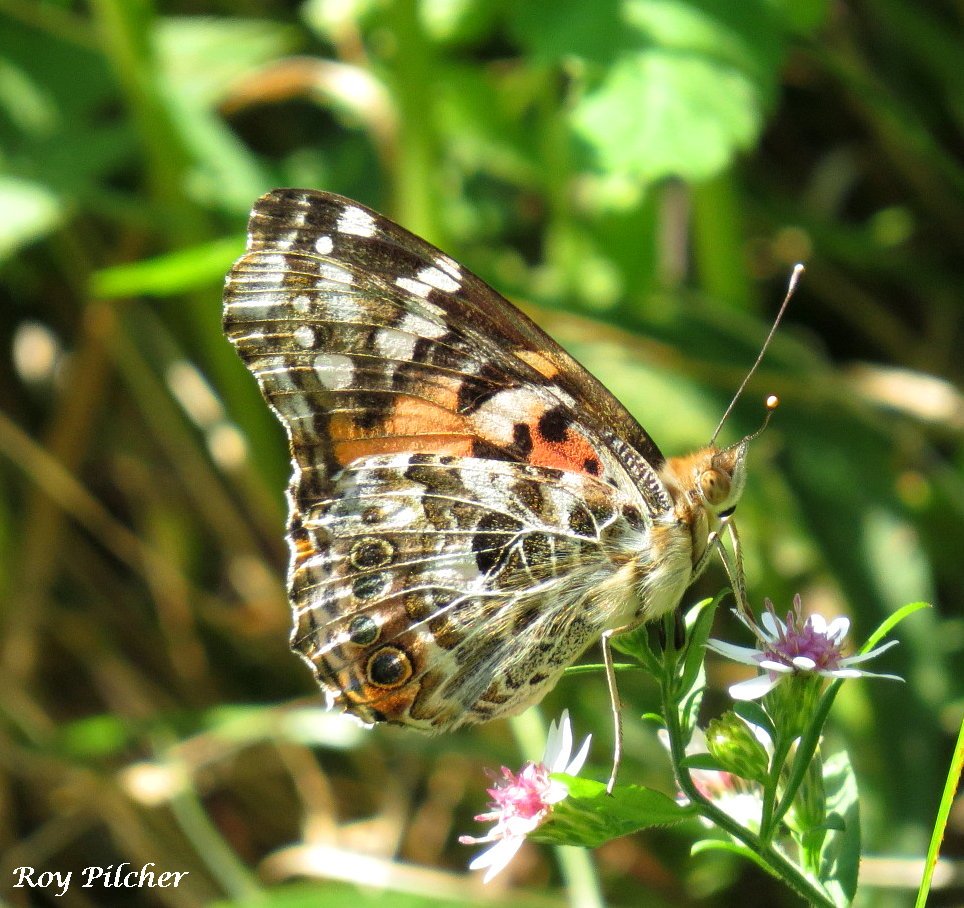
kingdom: Animalia
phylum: Arthropoda
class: Insecta
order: Lepidoptera
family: Nymphalidae
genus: Vanessa
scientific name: Vanessa cardui
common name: Painted Lady
